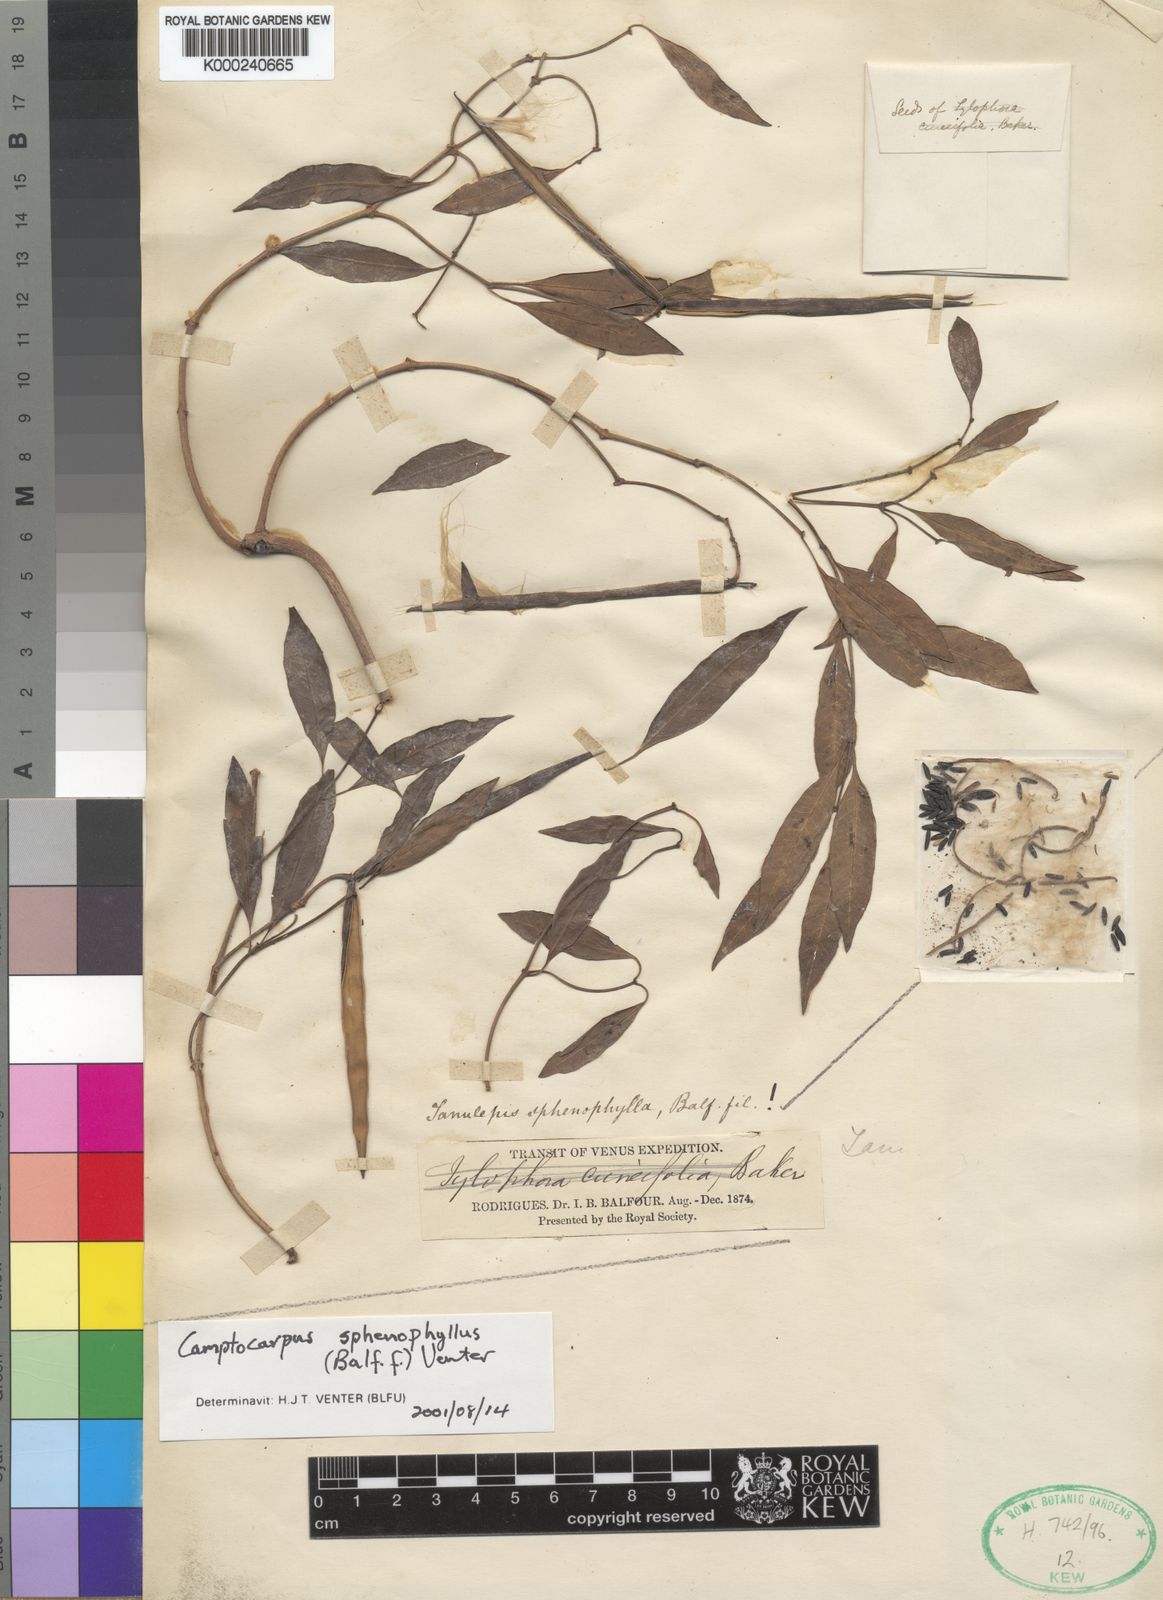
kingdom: Plantae
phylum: Tracheophyta
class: Magnoliopsida
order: Gentianales
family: Apocynaceae
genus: Camptocarpus
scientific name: Camptocarpus sphenophyllus
